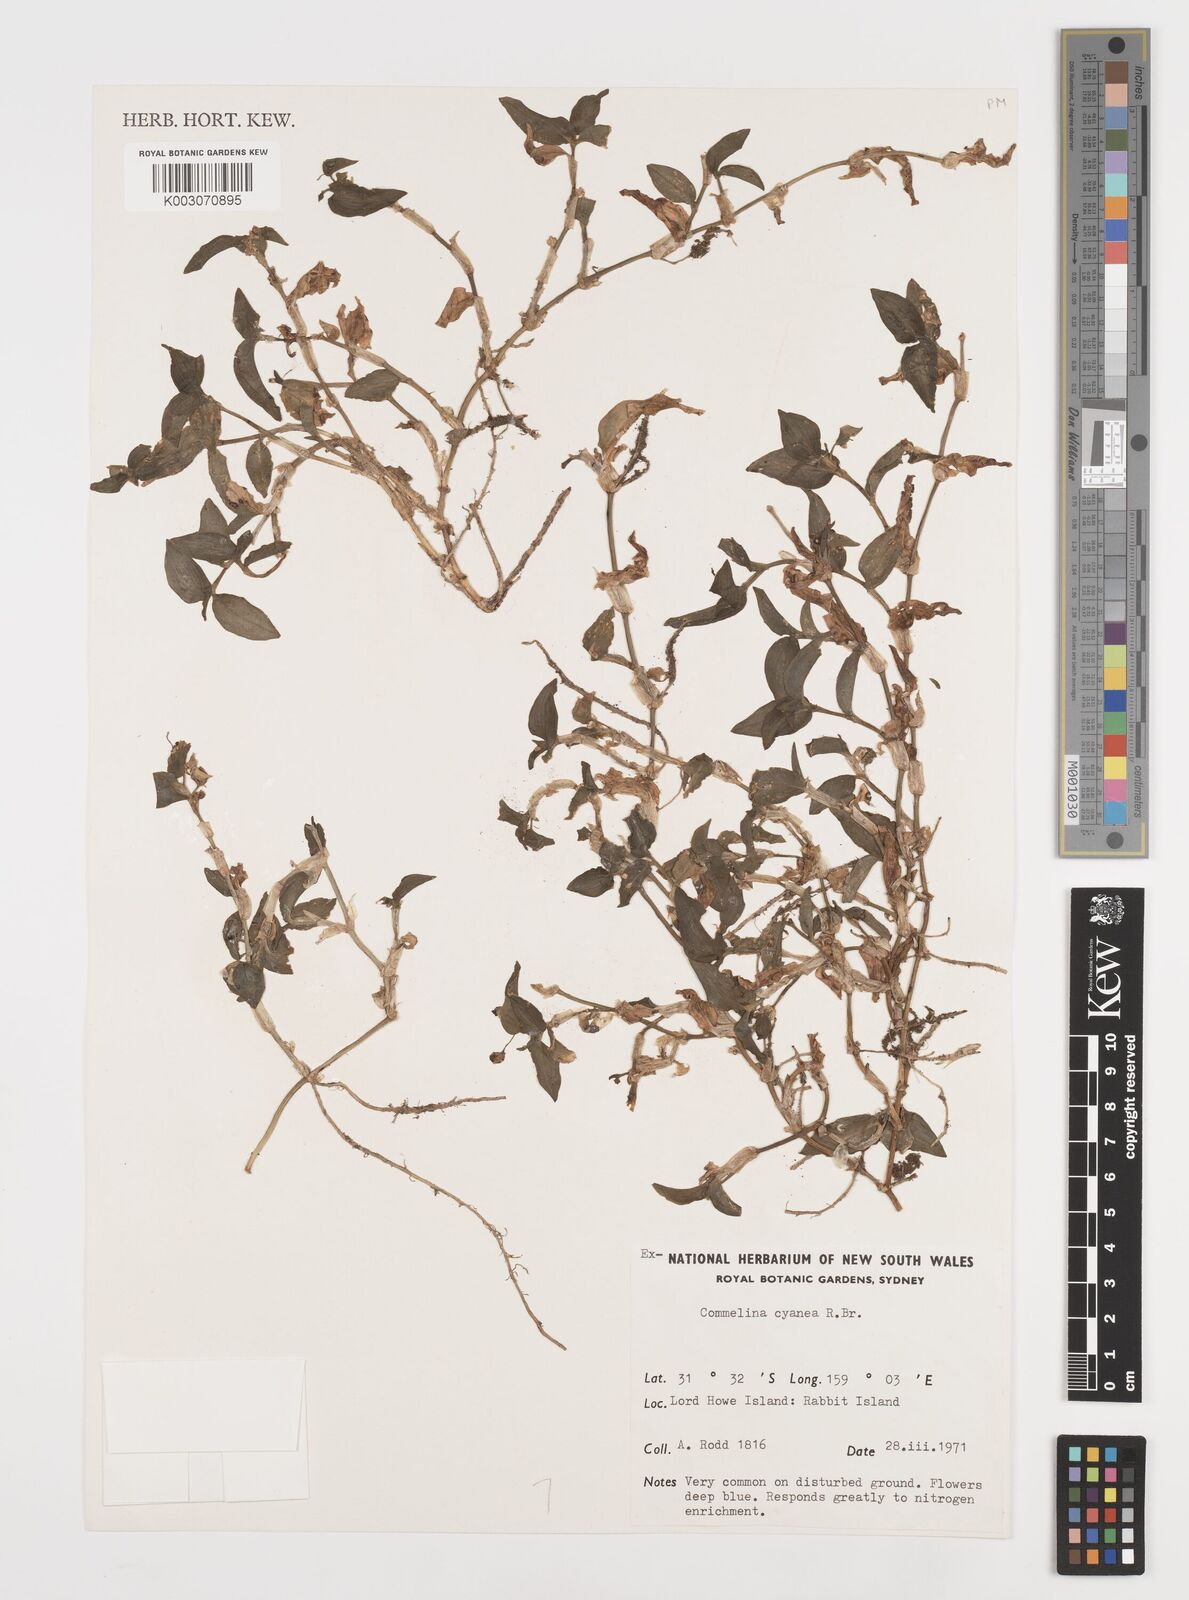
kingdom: Plantae
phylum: Tracheophyta
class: Liliopsida
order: Commelinales
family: Commelinaceae
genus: Commelina
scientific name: Commelina cyanea
